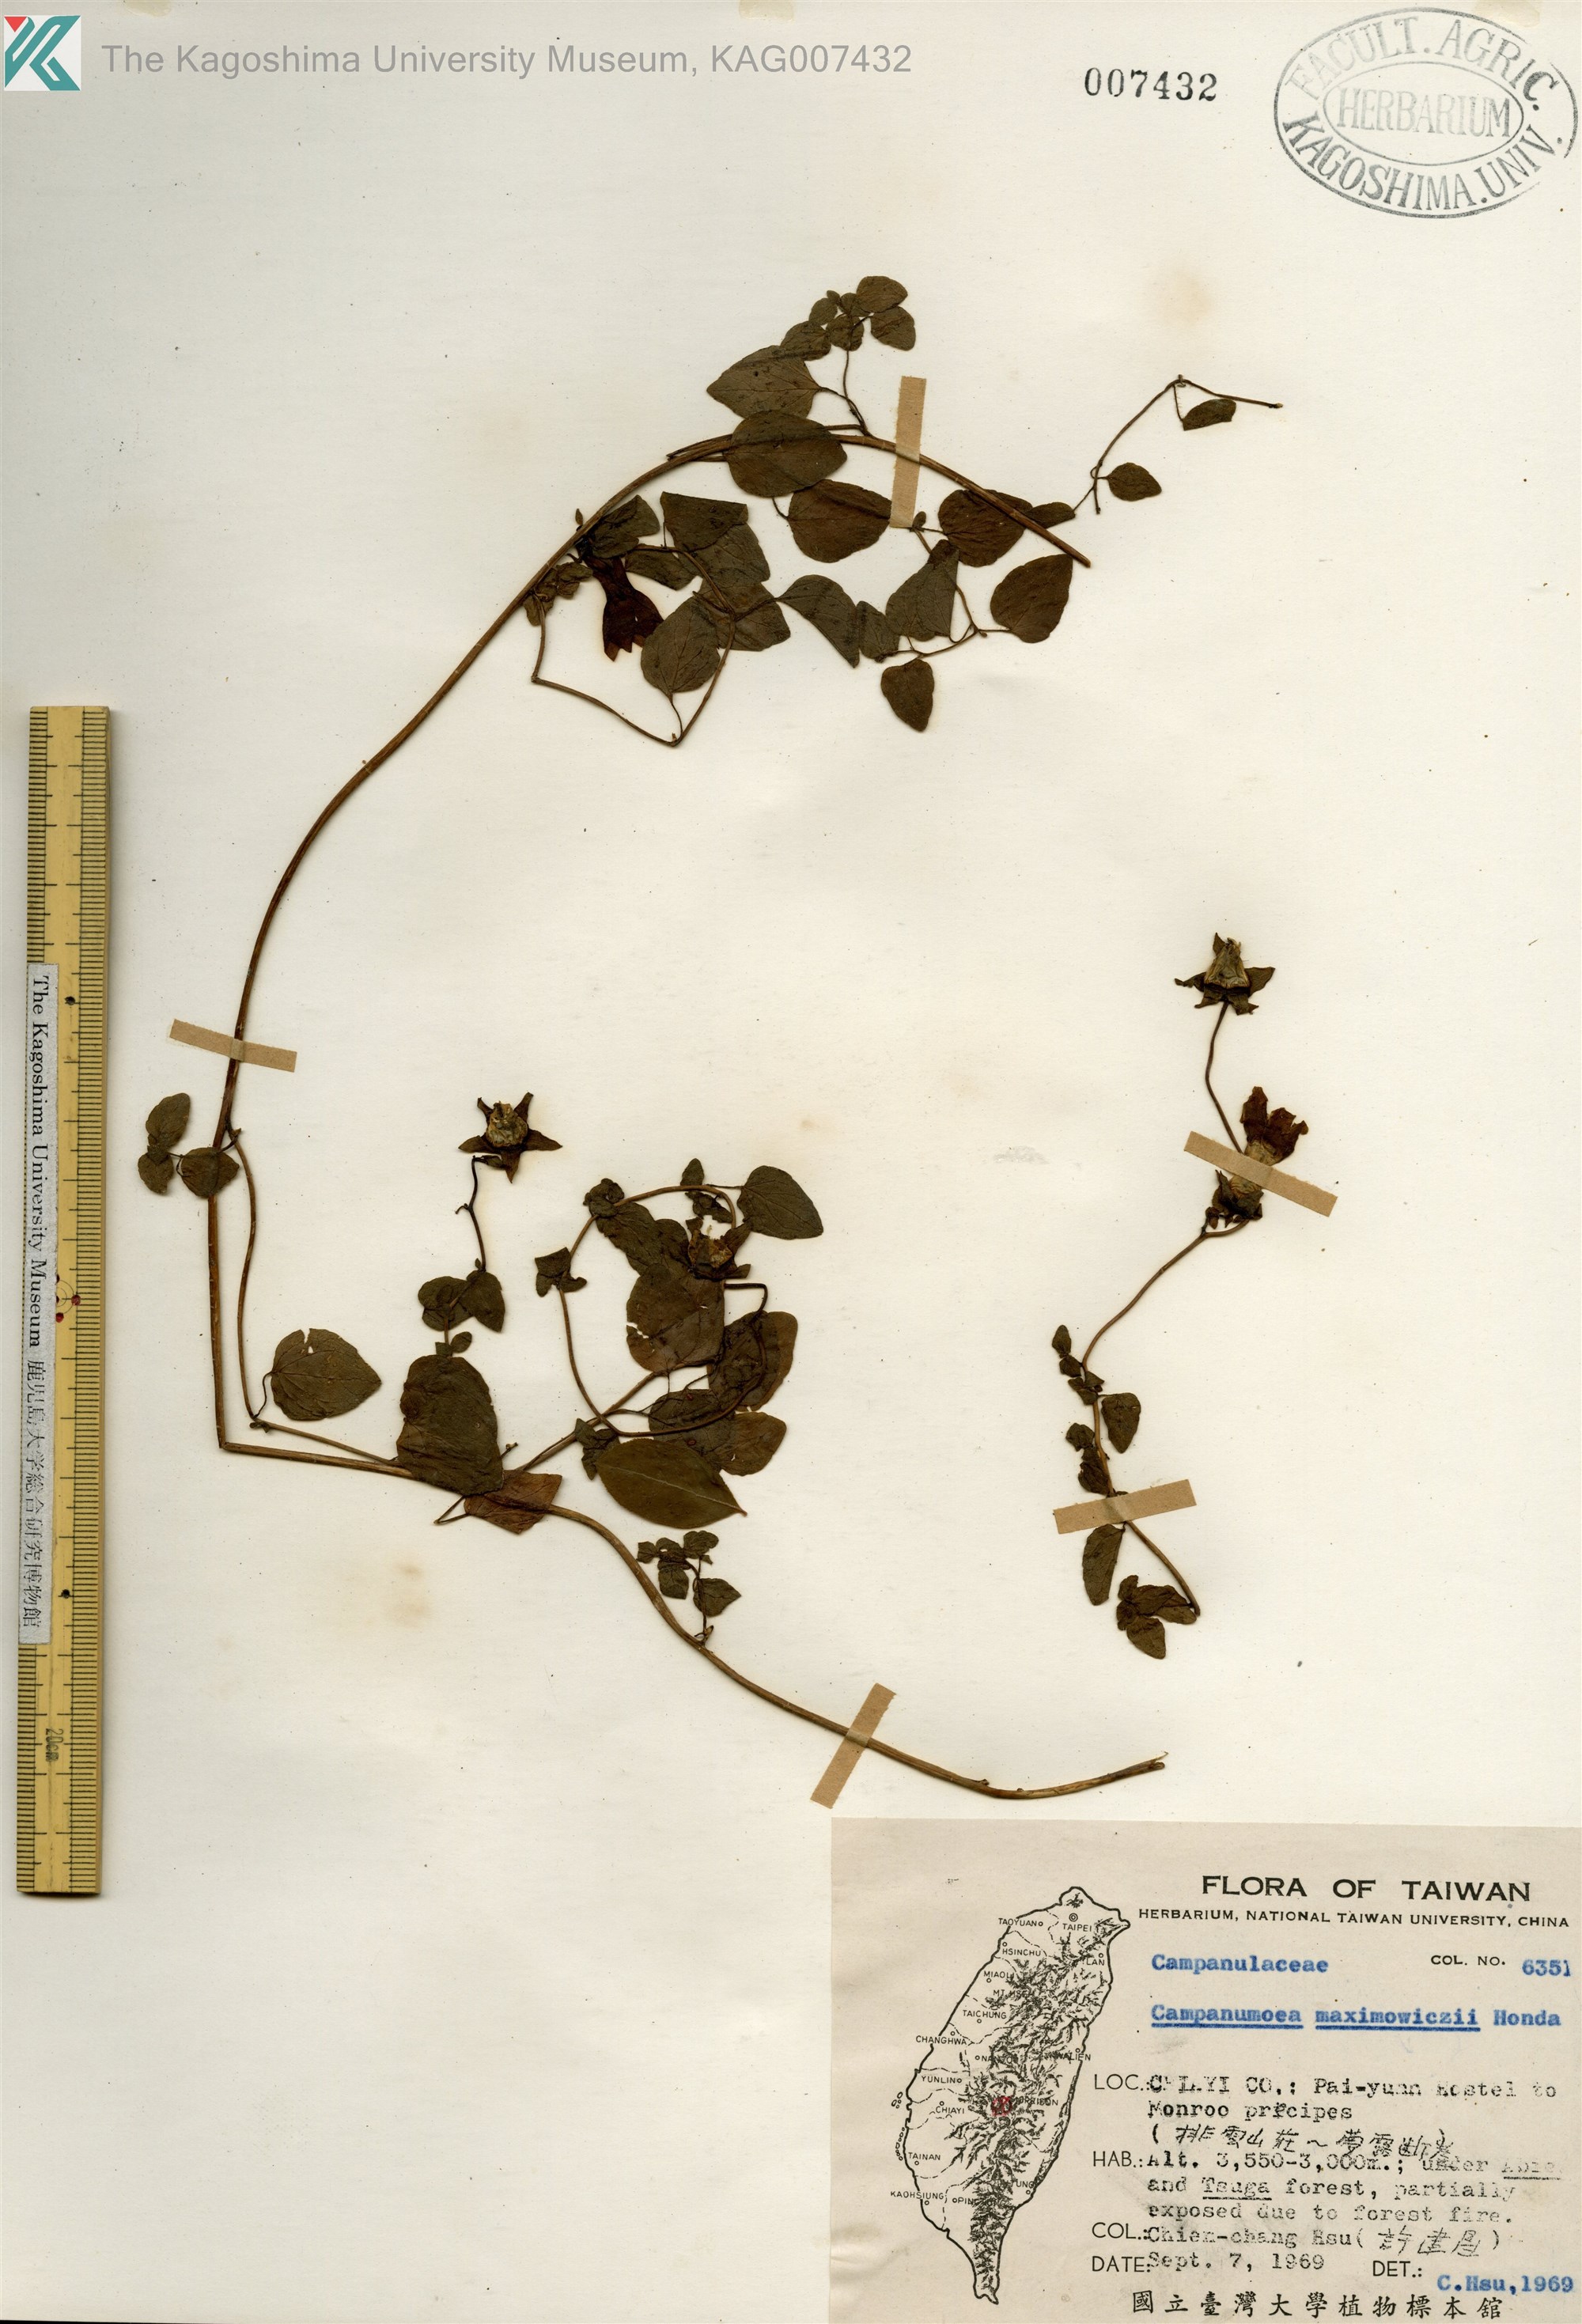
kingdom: Plantae
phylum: Tracheophyta
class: Magnoliopsida
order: Asterales
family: Campanulaceae
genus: Codonopsis
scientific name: Codonopsis javanica
